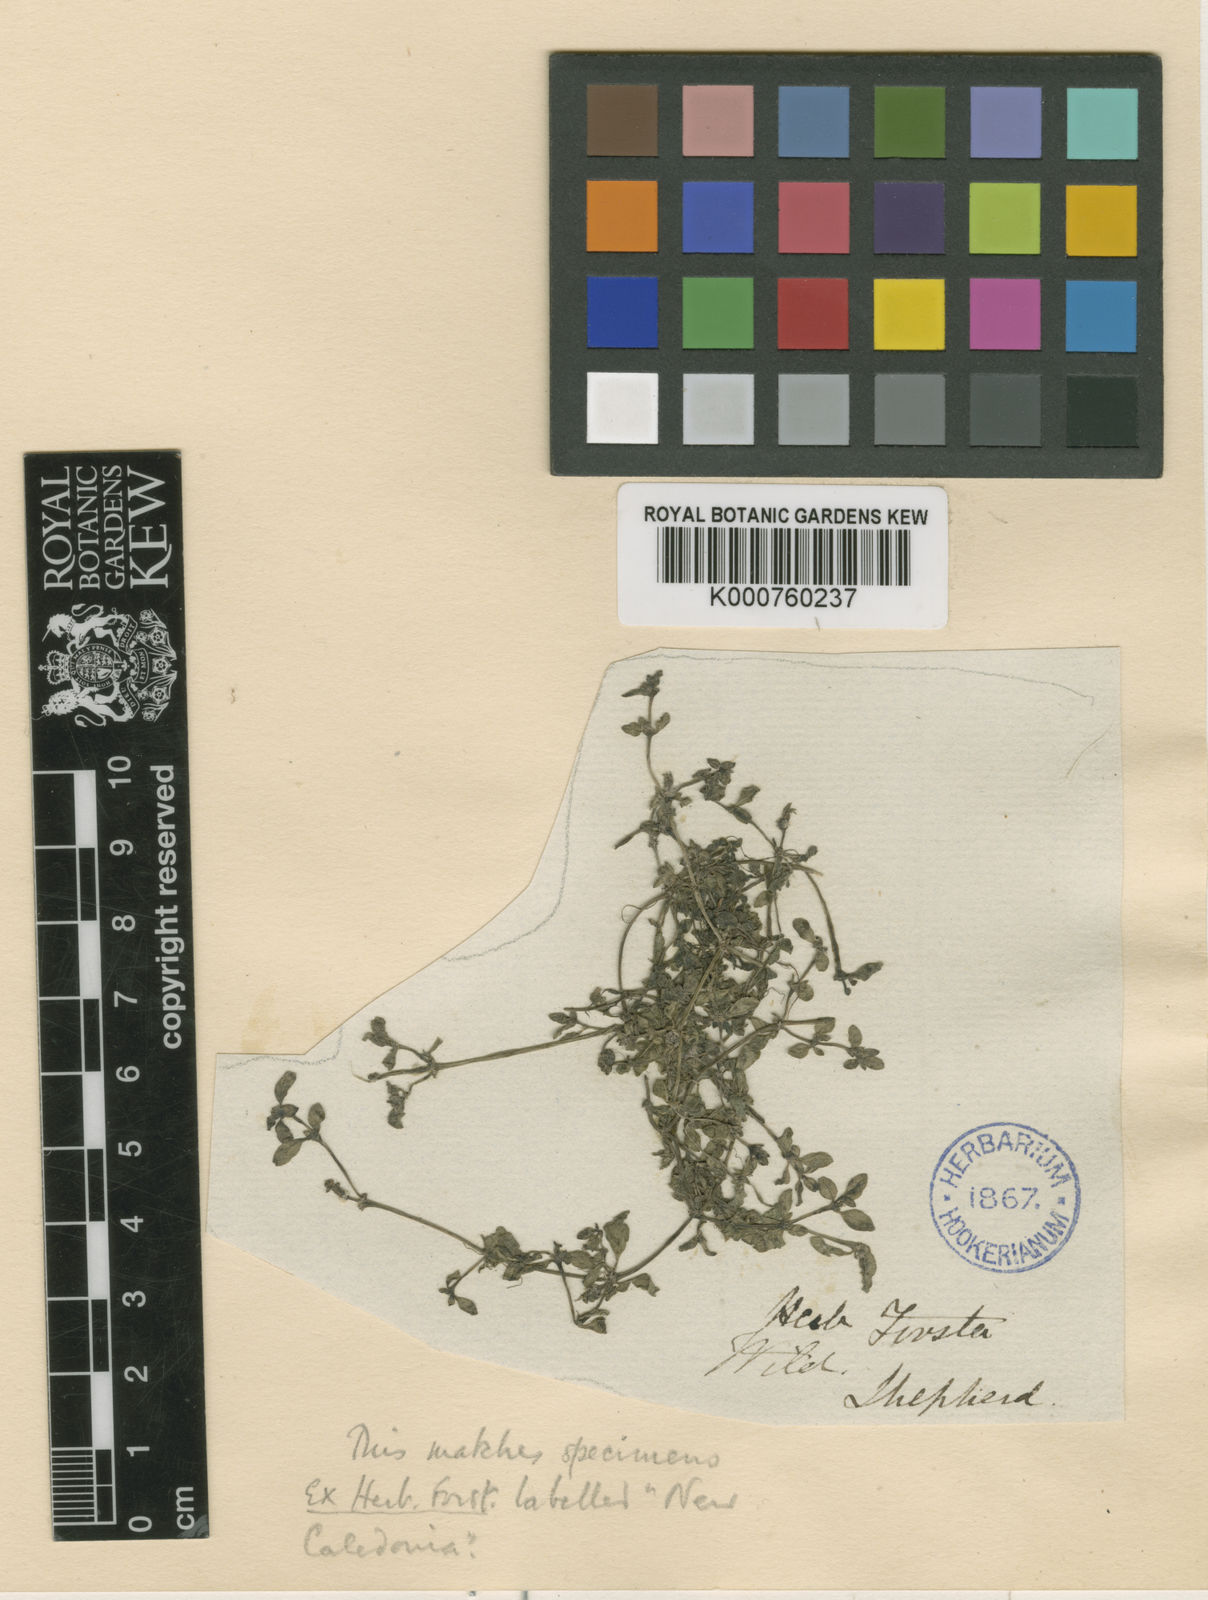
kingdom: Plantae
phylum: Tracheophyta
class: Magnoliopsida
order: Gentianales
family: Rubiaceae
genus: Dentella
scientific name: Dentella repens
